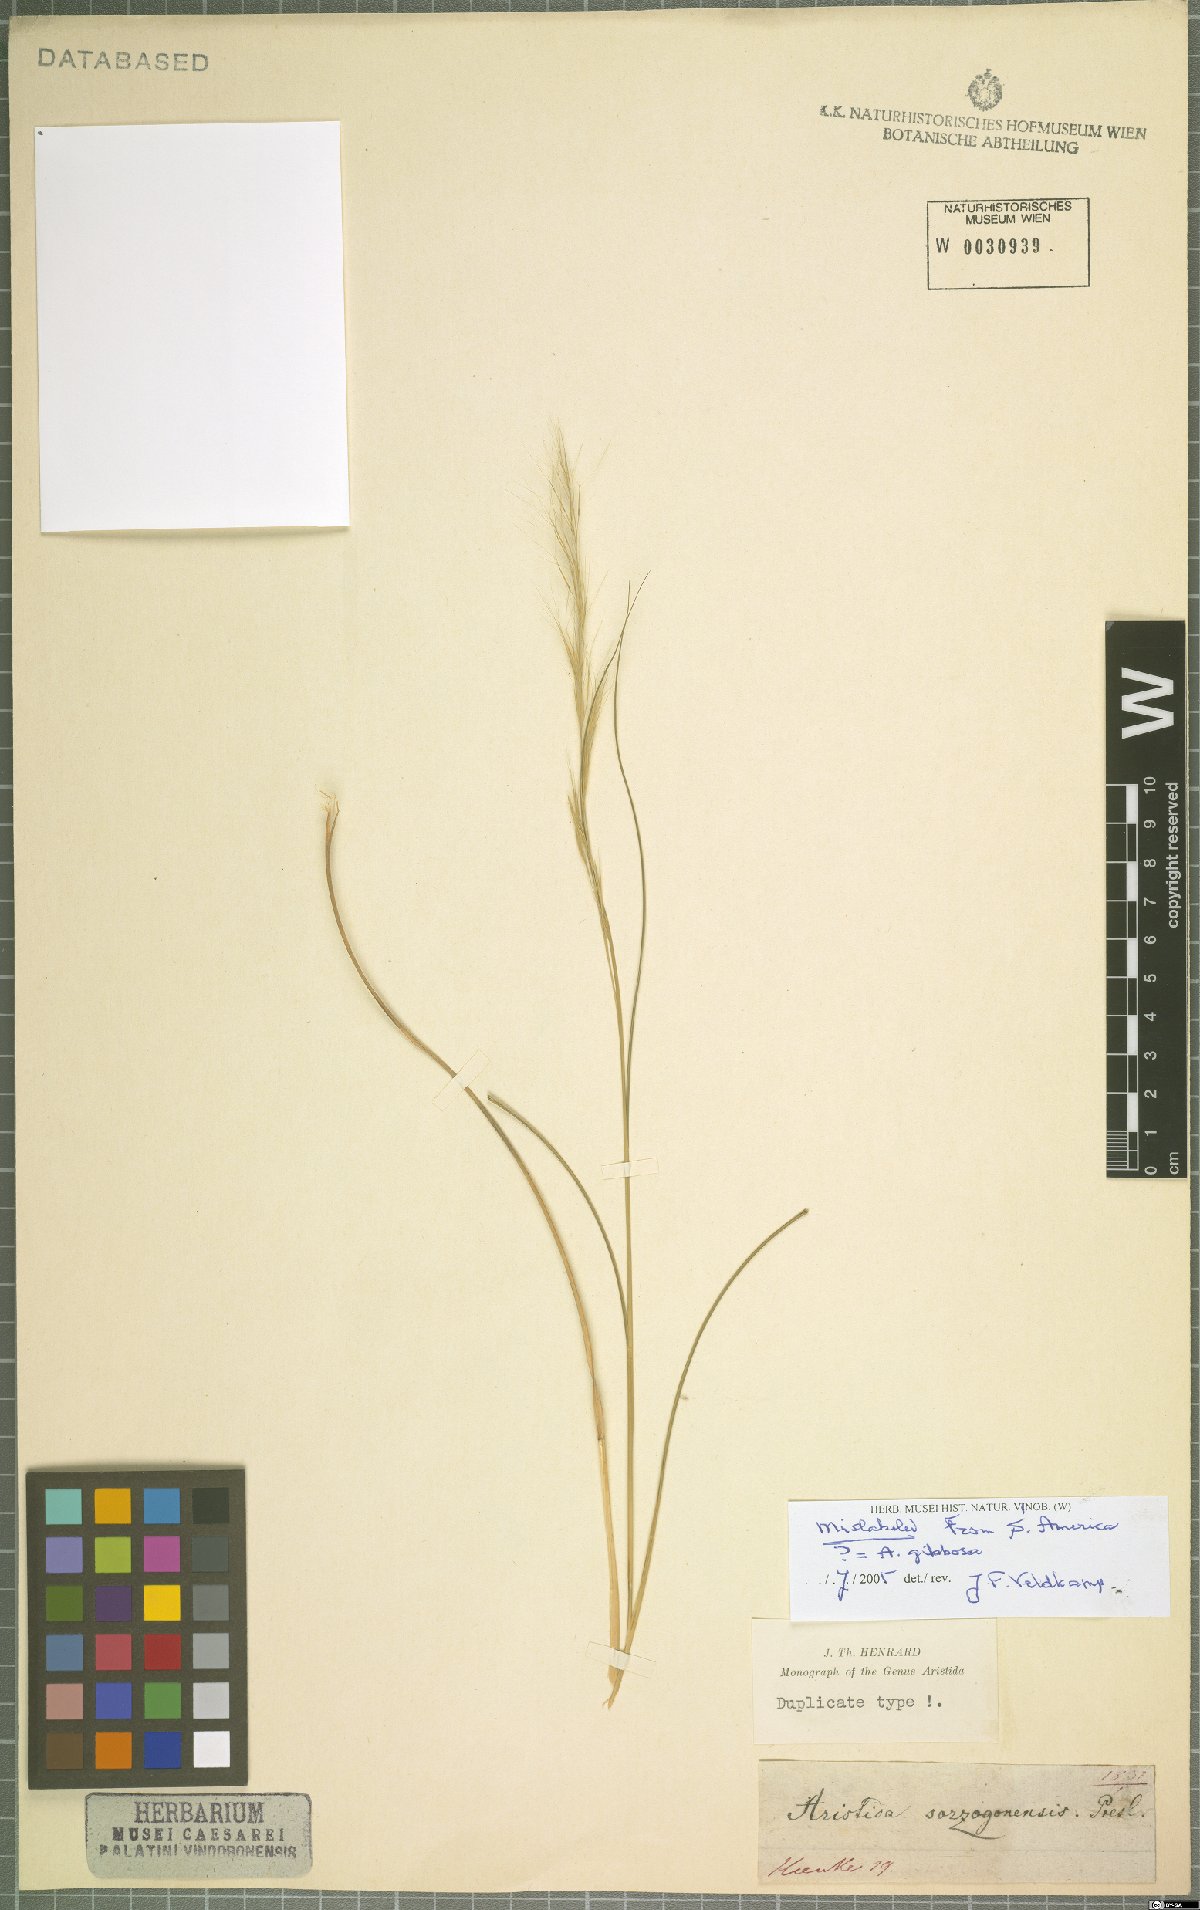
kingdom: Plantae
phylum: Tracheophyta
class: Liliopsida
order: Poales
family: Poaceae
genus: Aristida
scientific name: Aristida gibbosa
